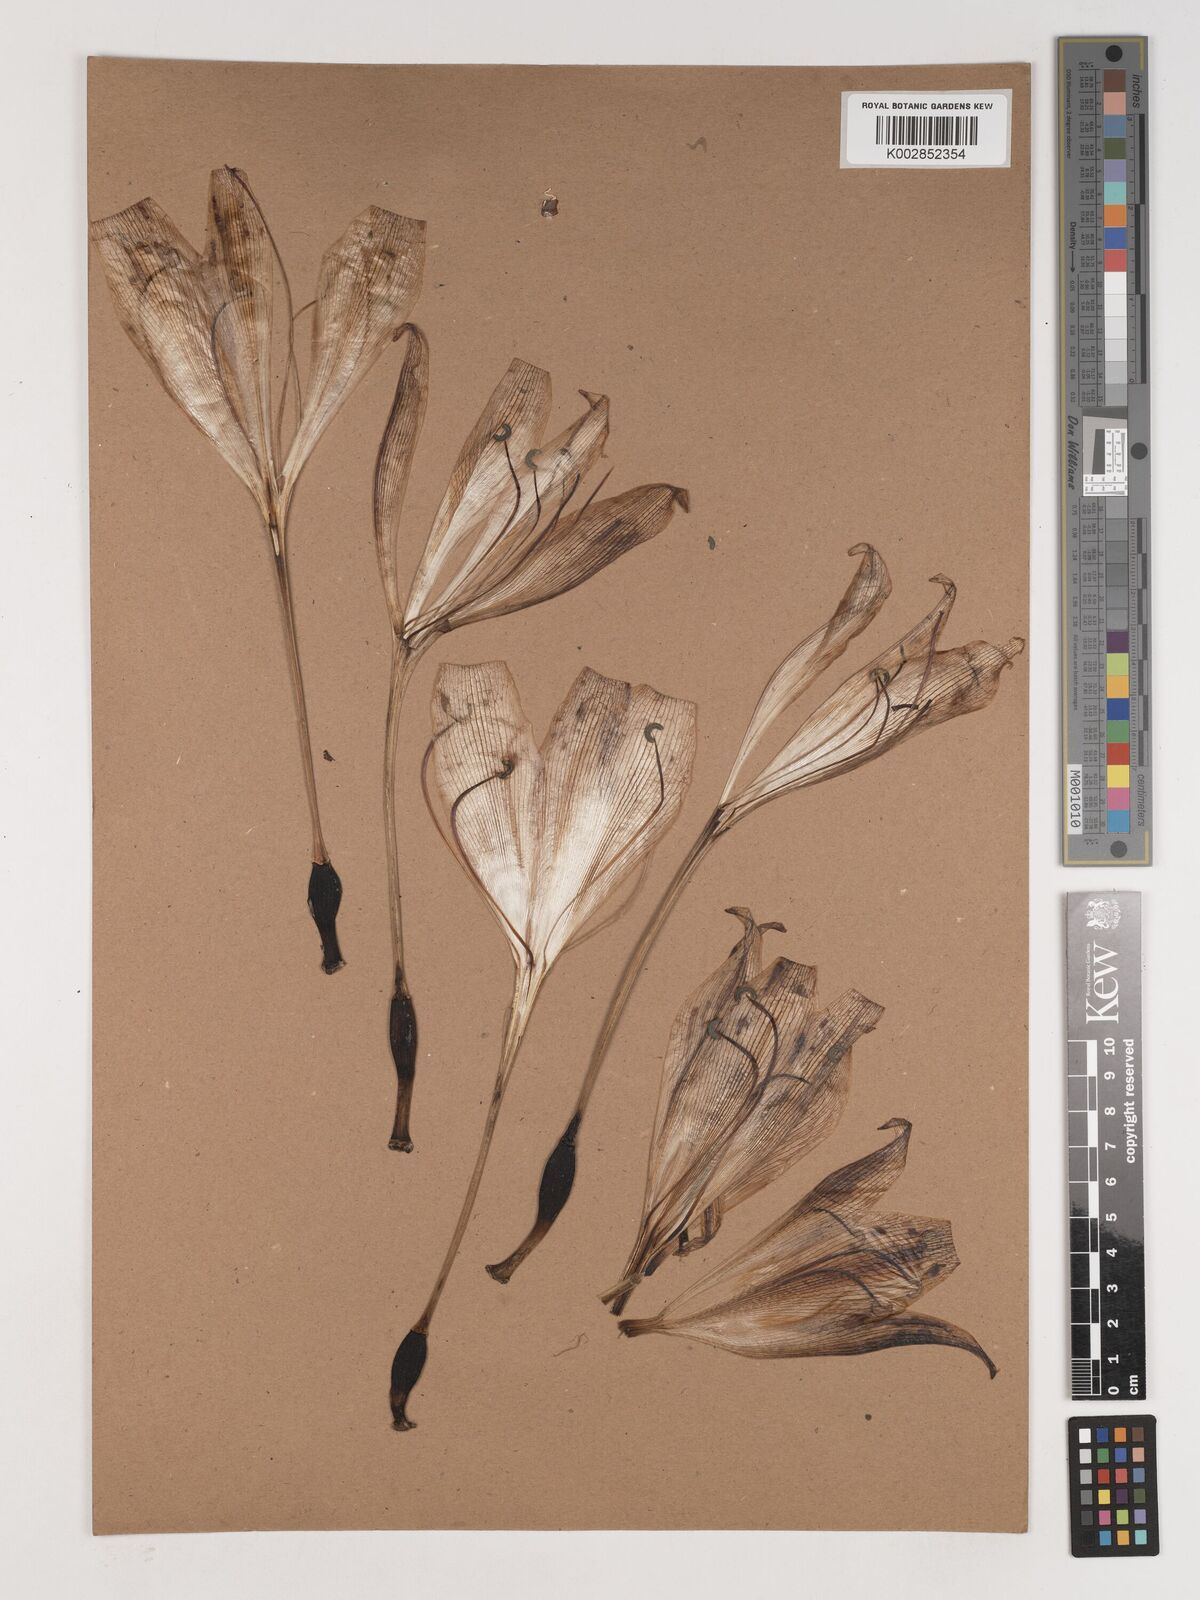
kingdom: Plantae
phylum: Tracheophyta
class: Liliopsida
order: Asparagales
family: Amaryllidaceae
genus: Crinum
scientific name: Crinum
